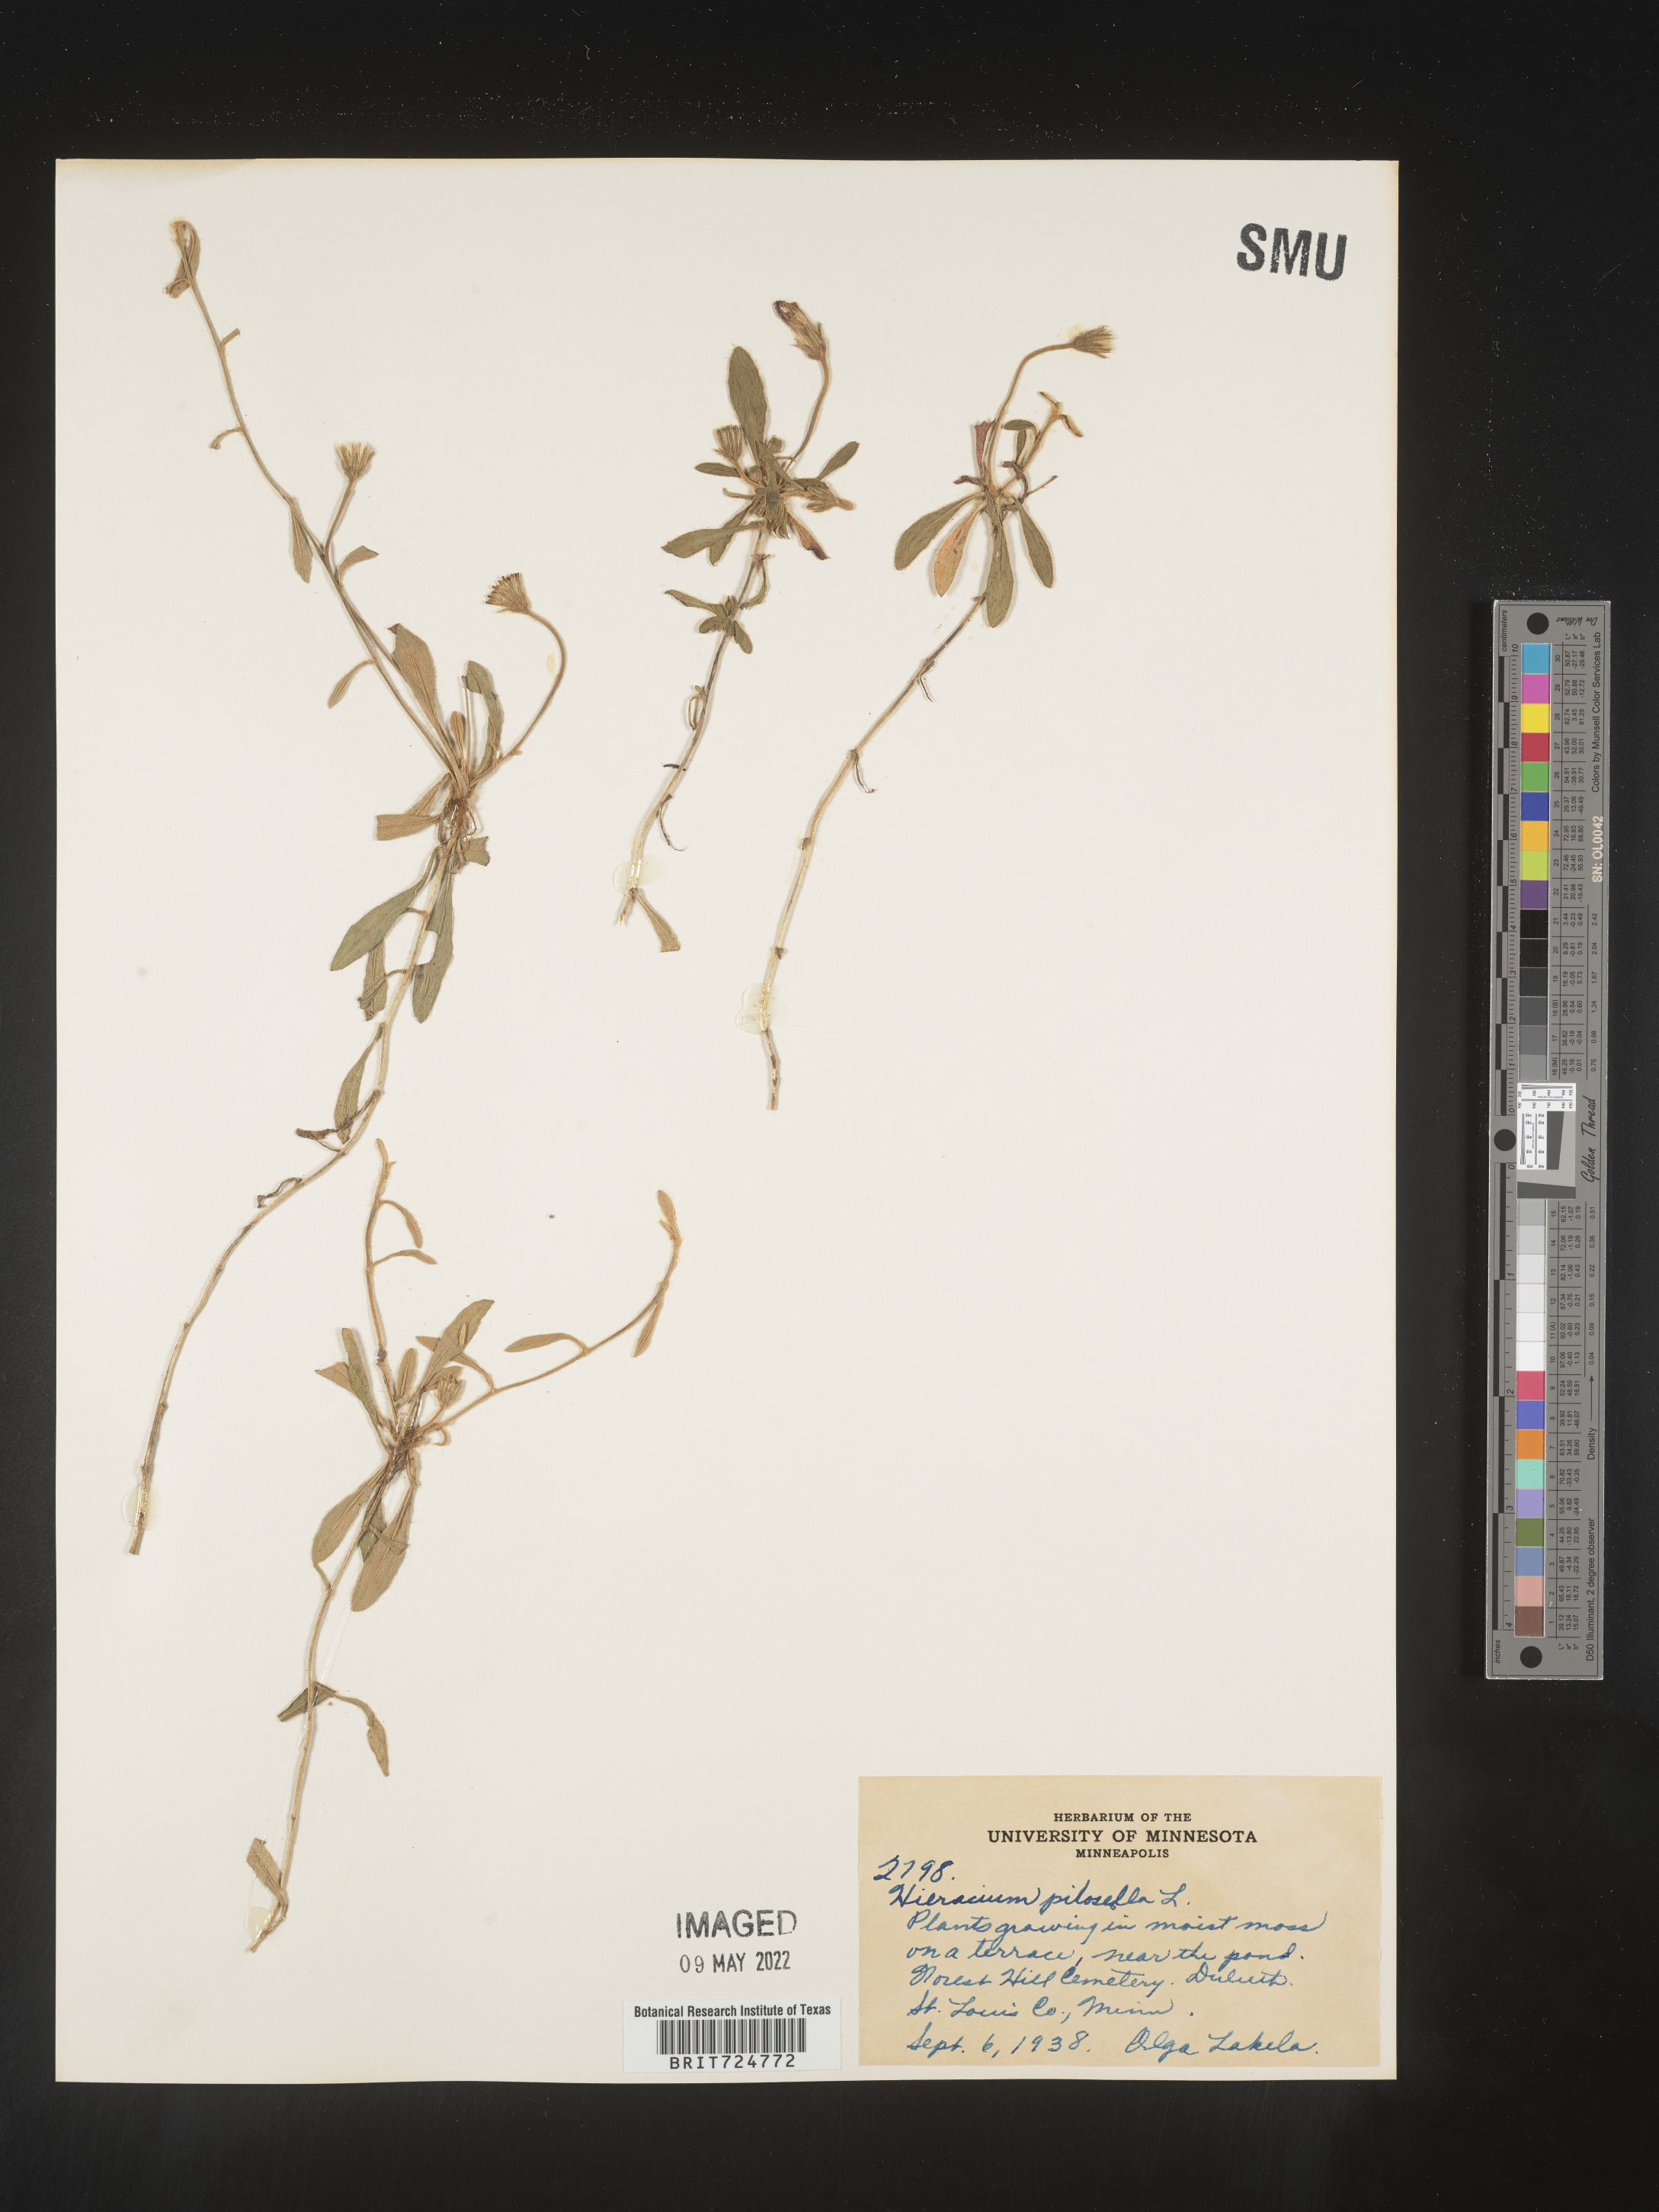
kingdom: Plantae
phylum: Tracheophyta
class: Magnoliopsida
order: Asterales
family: Asteraceae
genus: Hieracium
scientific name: Hieracium
